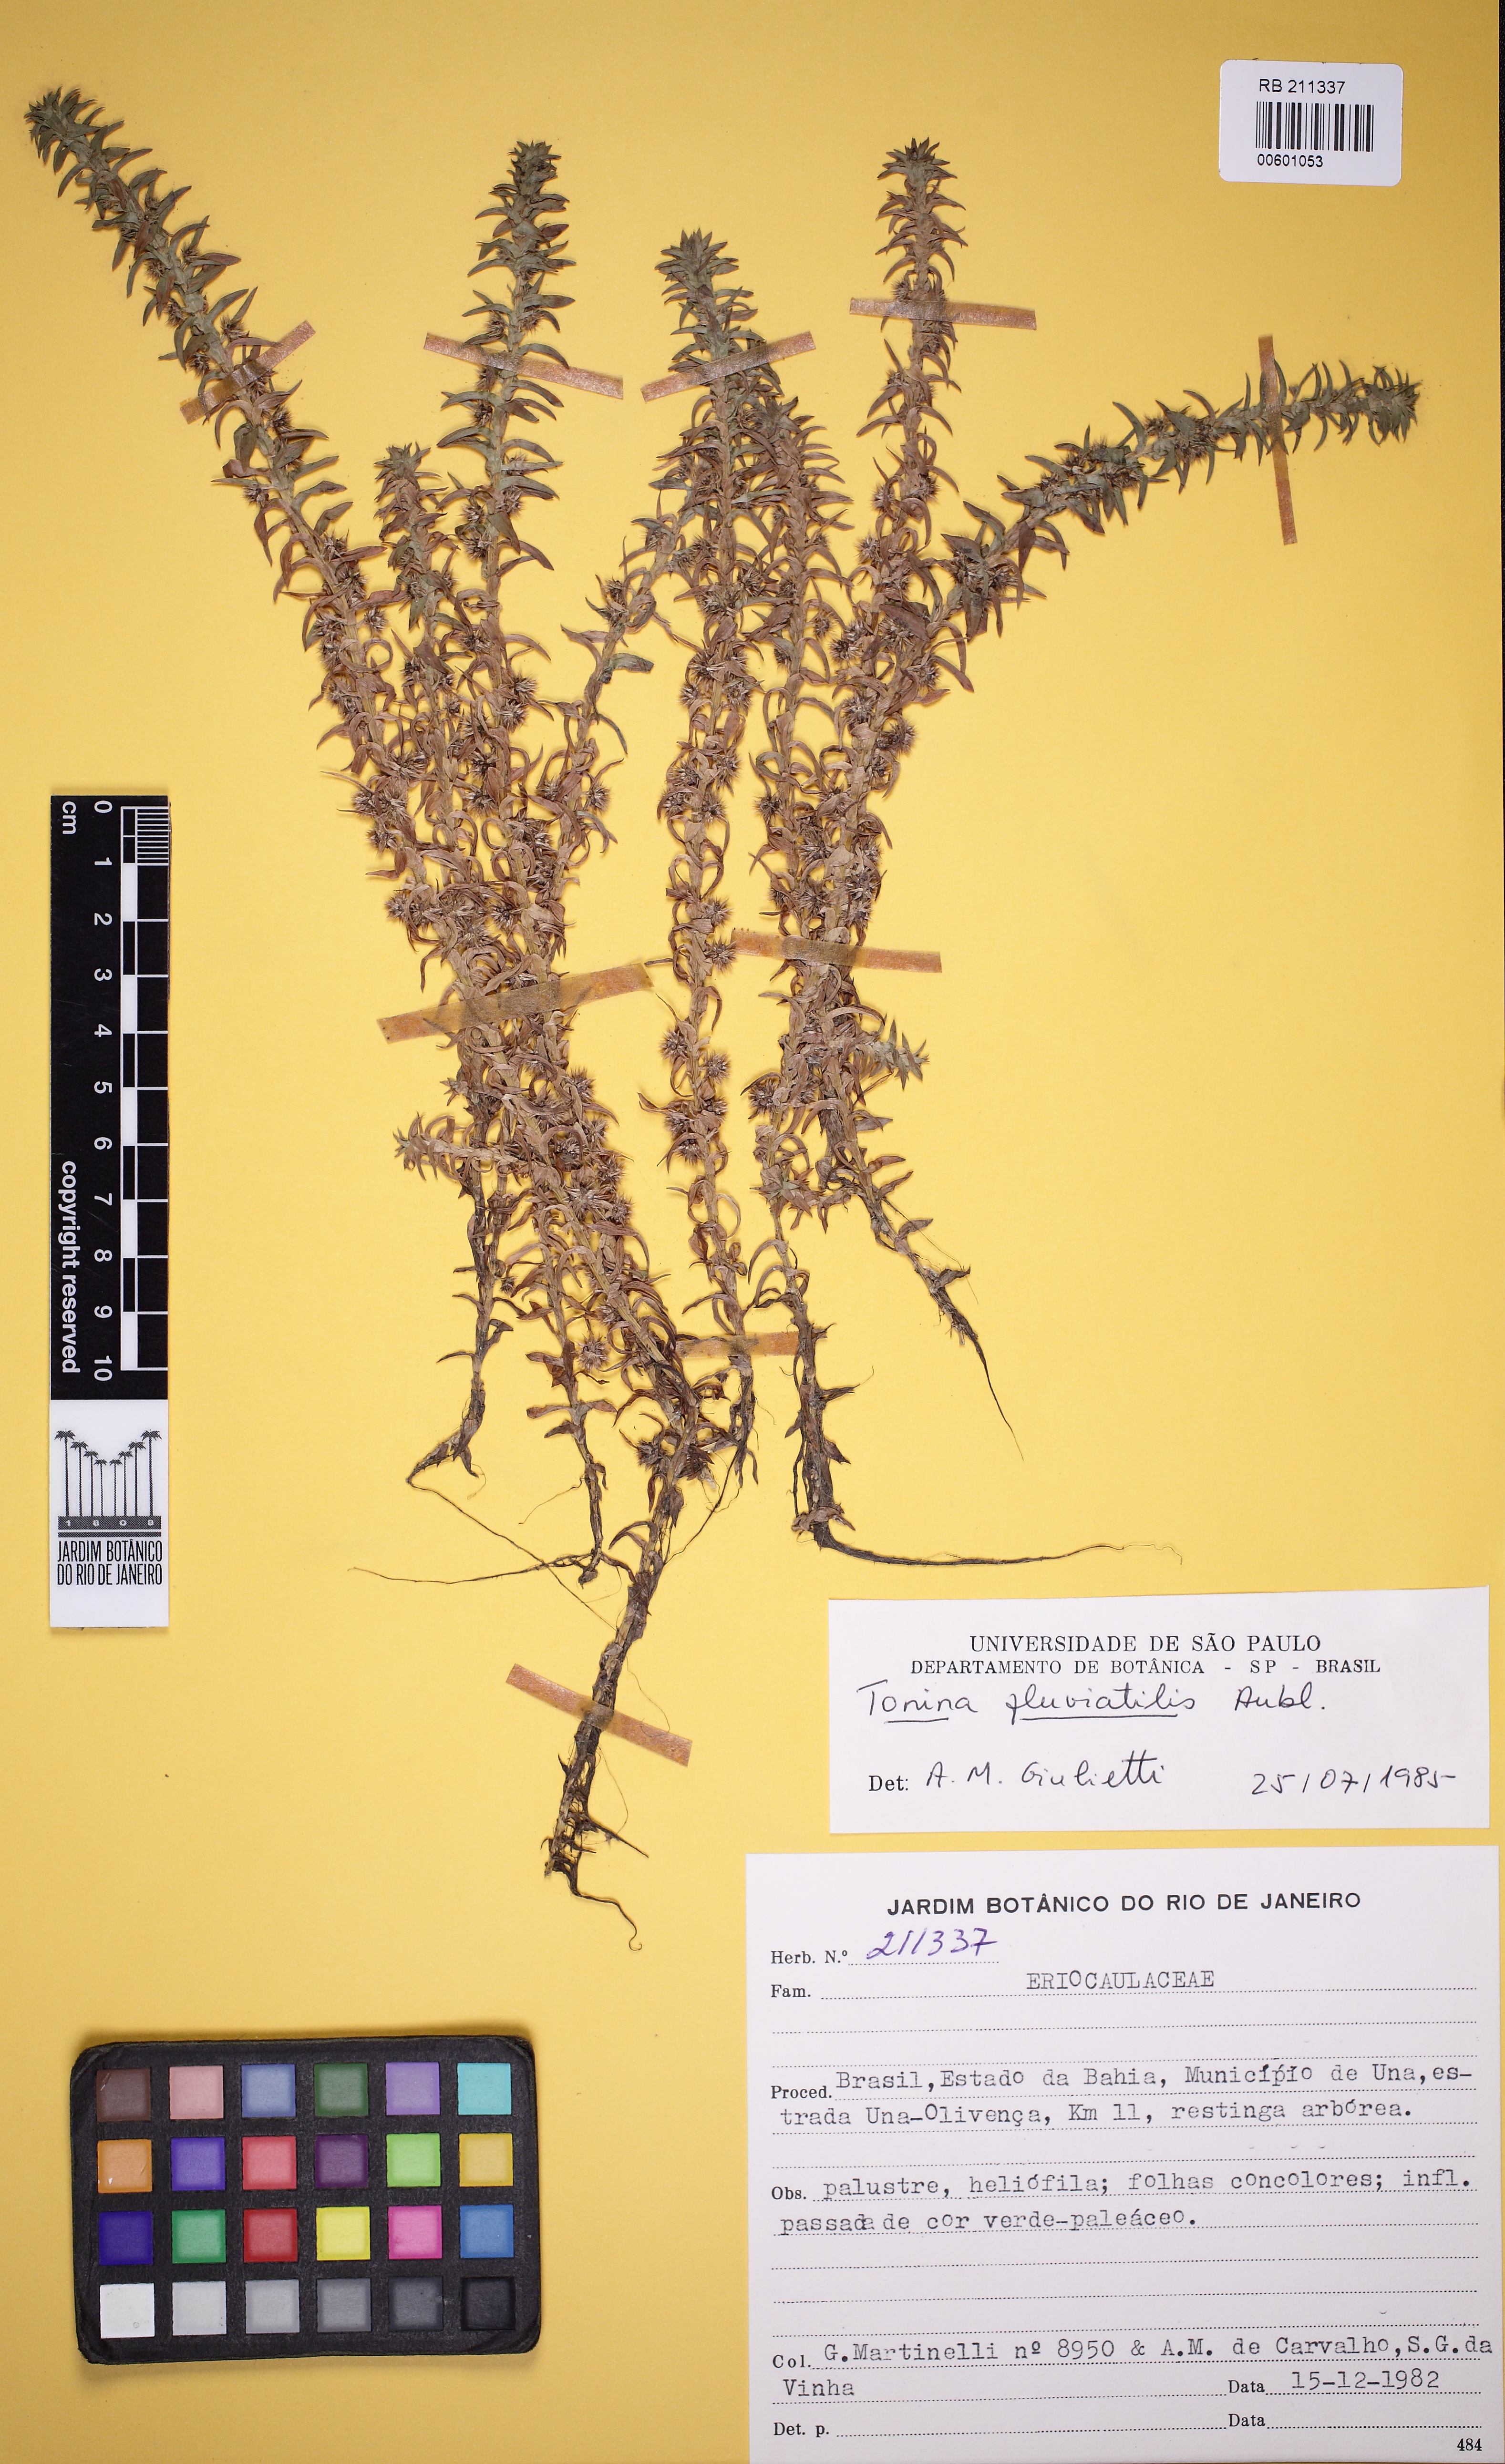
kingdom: Plantae
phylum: Tracheophyta
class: Liliopsida
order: Poales
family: Eriocaulaceae
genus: Paepalanthus
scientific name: Paepalanthus fluviatilis
